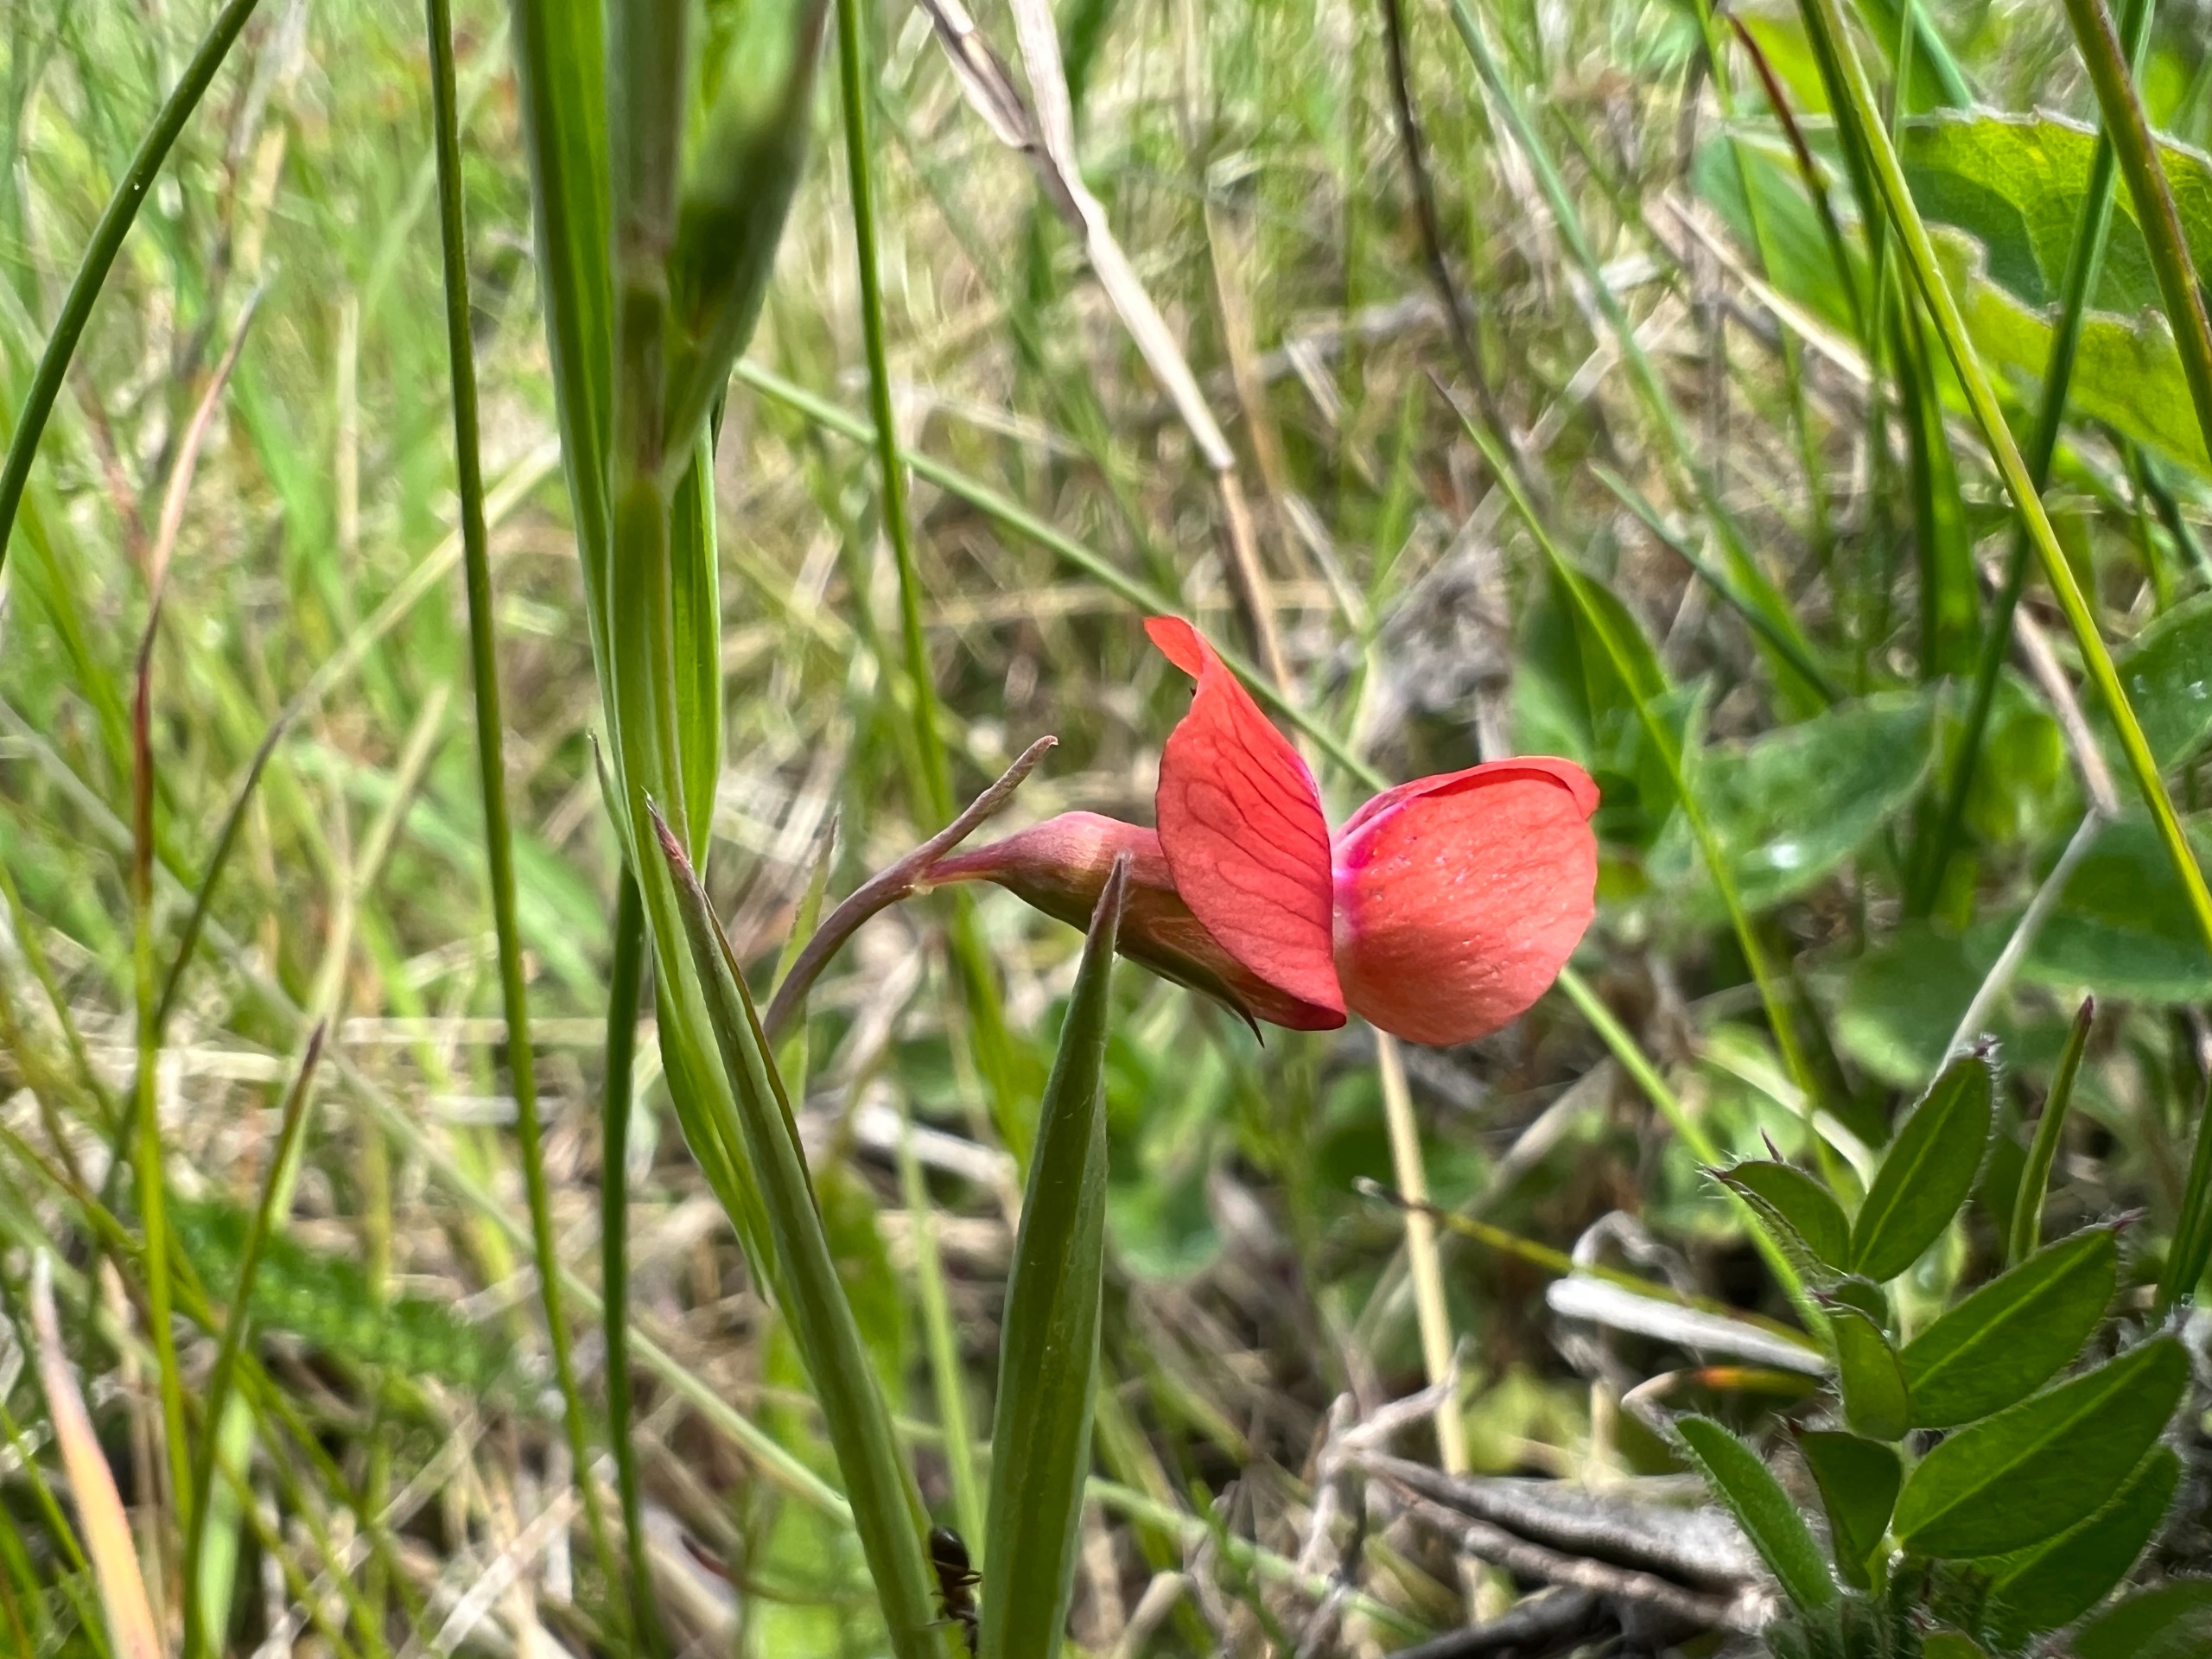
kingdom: Plantae
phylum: Tracheophyta
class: Magnoliopsida
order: Fabales
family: Fabaceae
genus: Lathyrus
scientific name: Lathyrus sphaericus
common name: Enblomstret fladbælg
